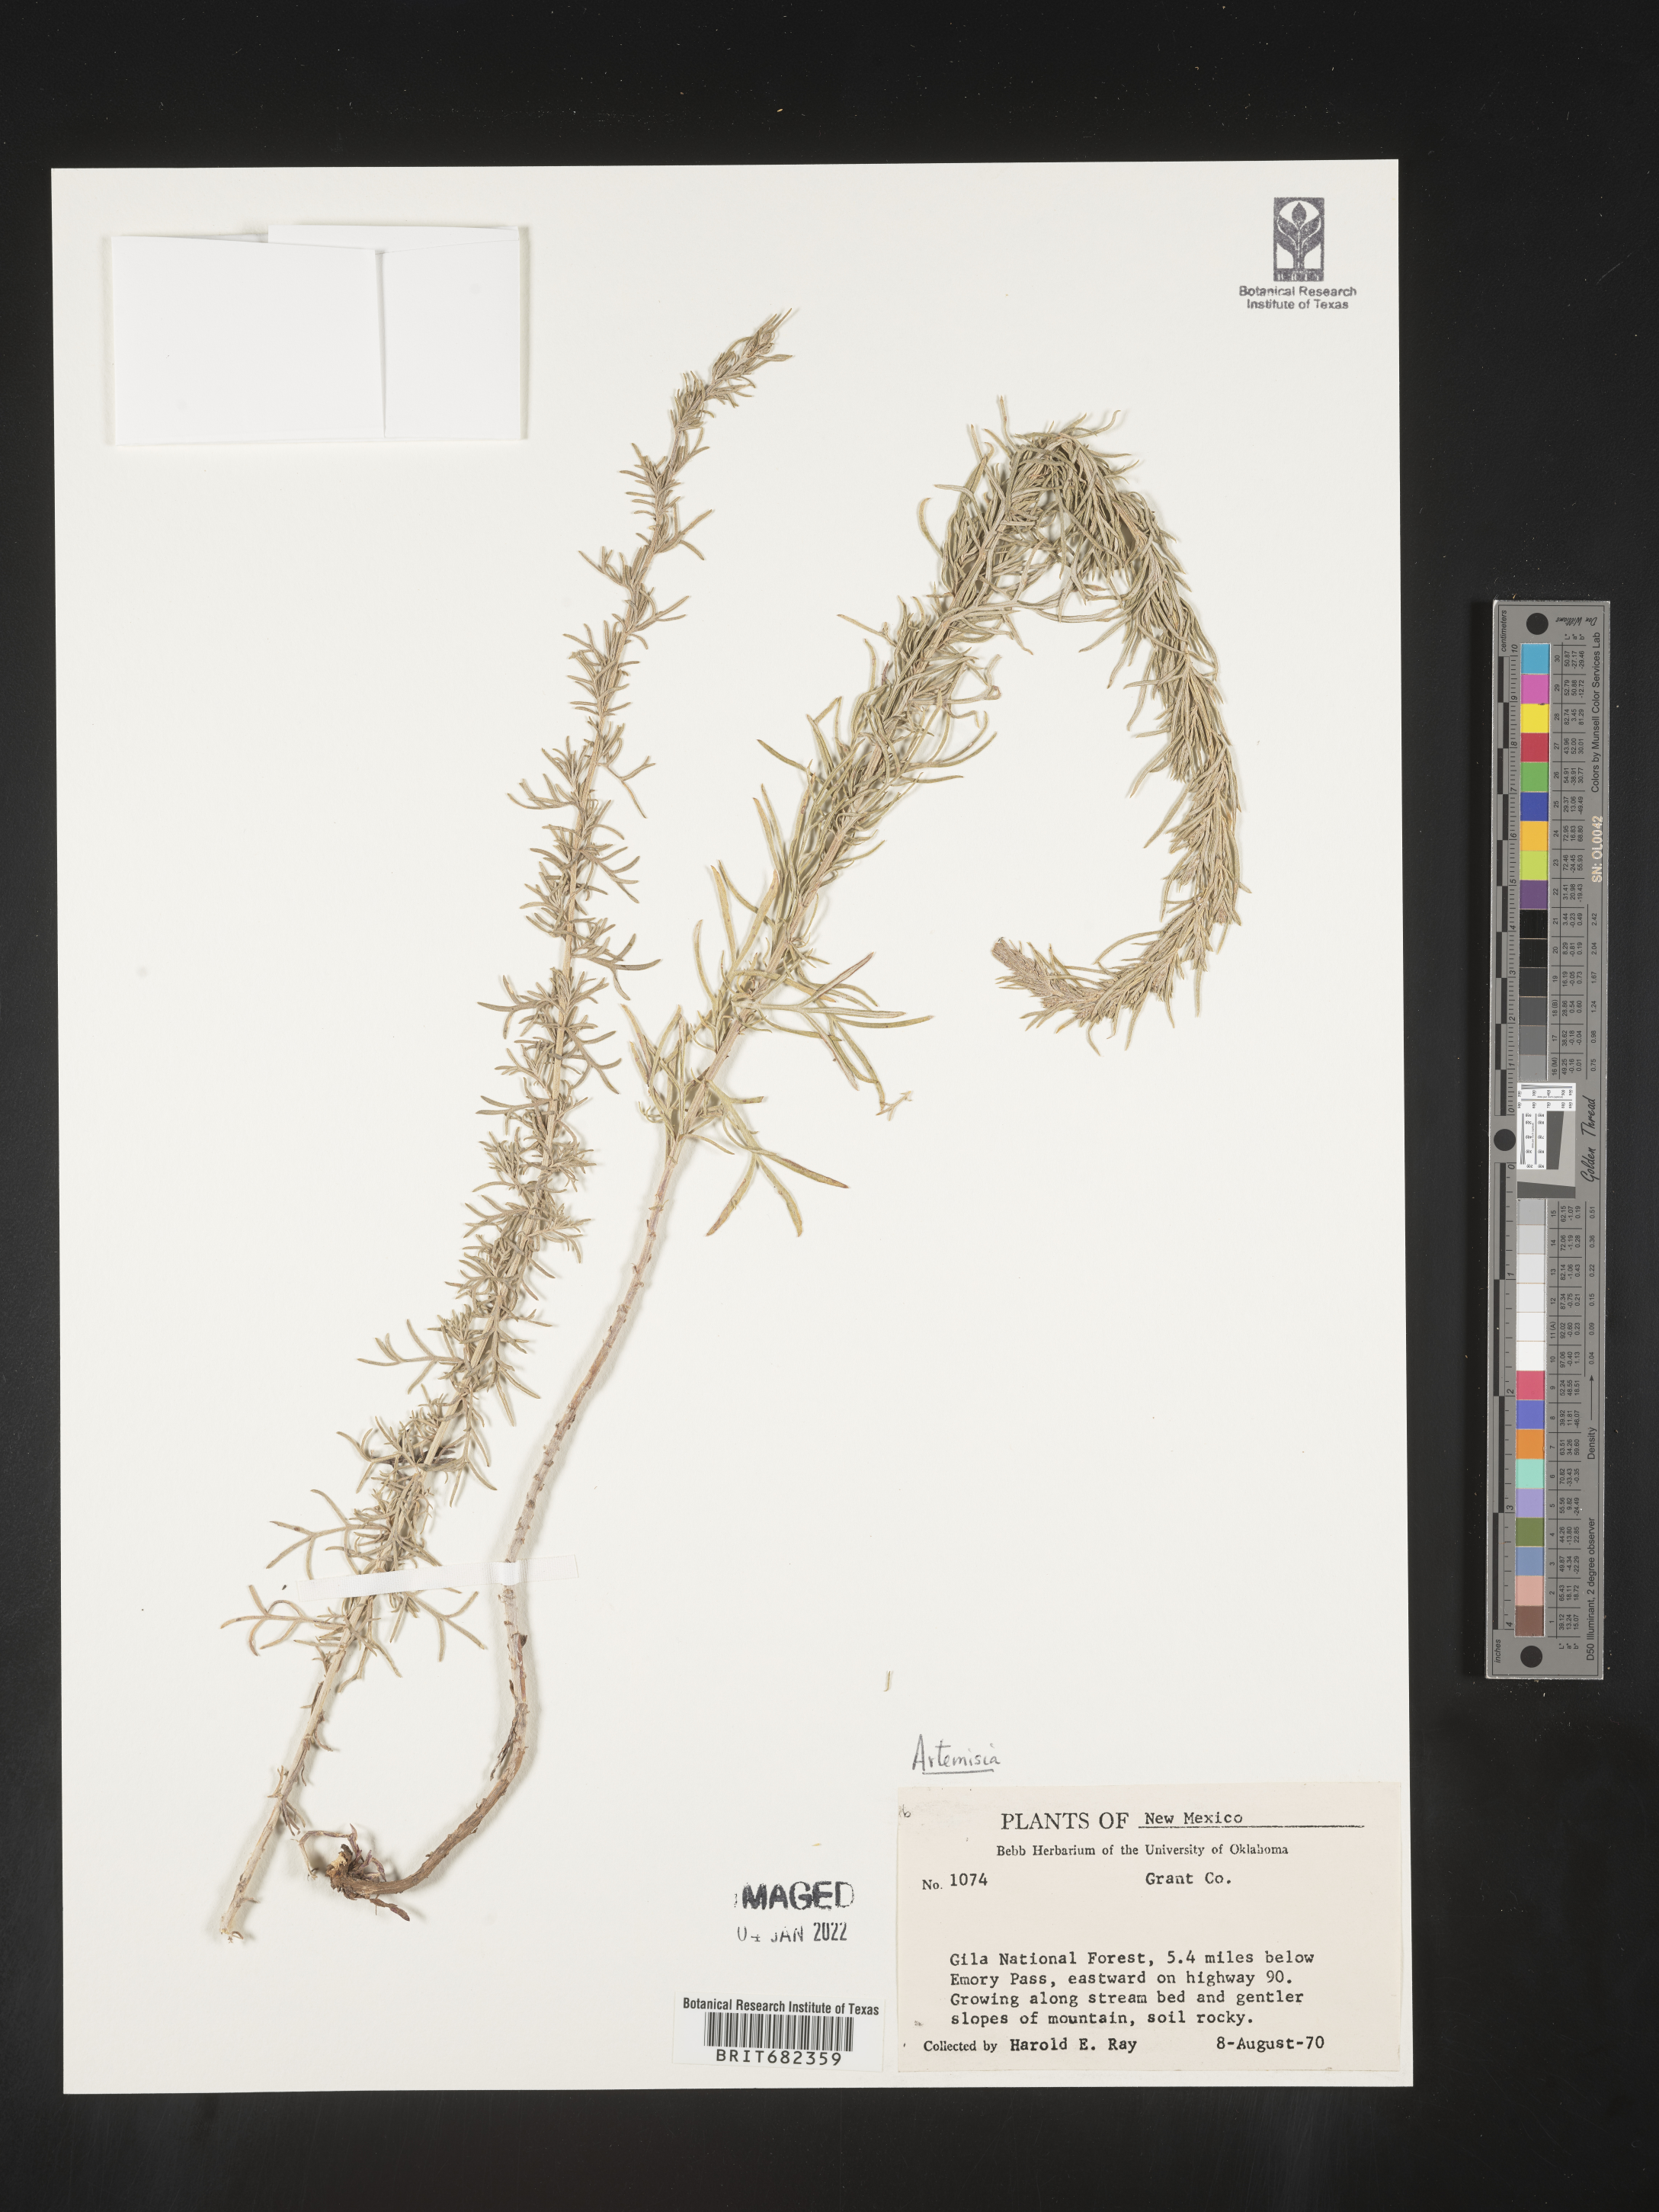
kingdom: Plantae
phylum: Tracheophyta
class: Magnoliopsida
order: Asterales
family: Asteraceae
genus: Artemisia
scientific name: Artemisia
